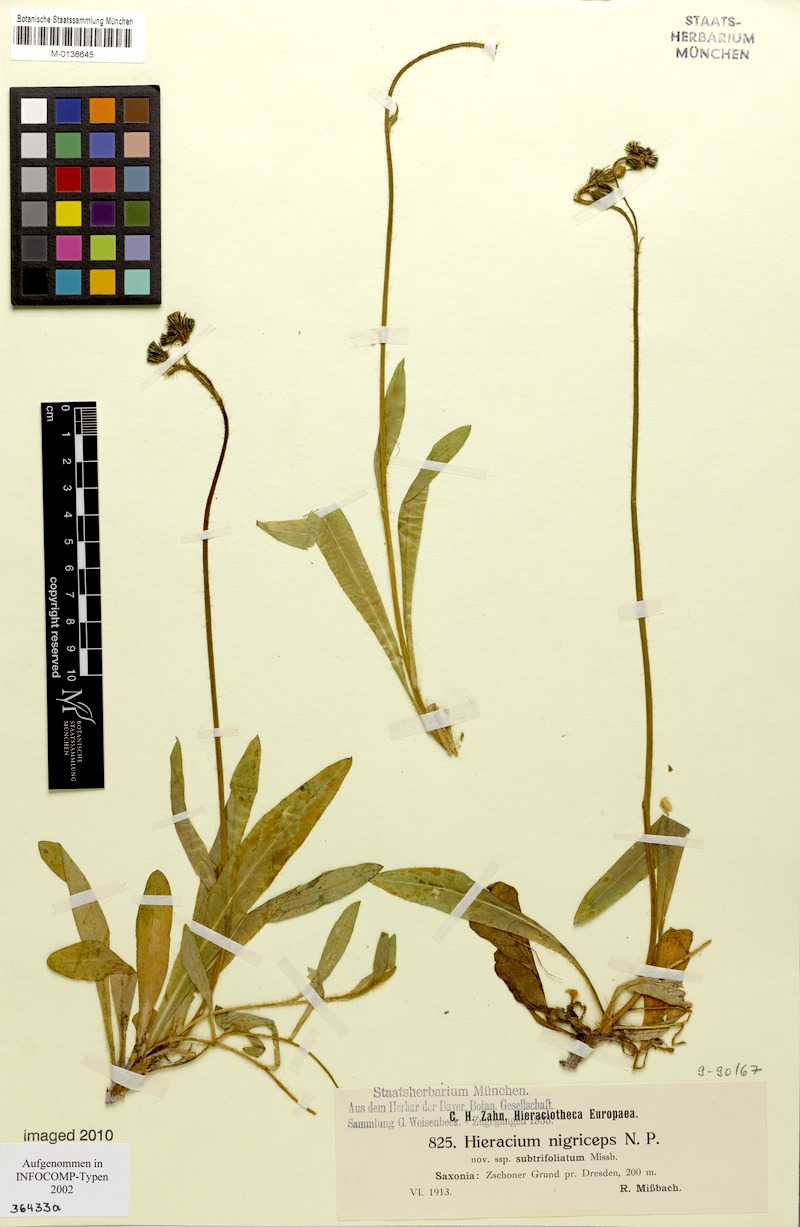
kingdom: Plantae
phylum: Tracheophyta
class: Magnoliopsida
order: Asterales
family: Asteraceae
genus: Pilosella
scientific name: Pilosella iserana
